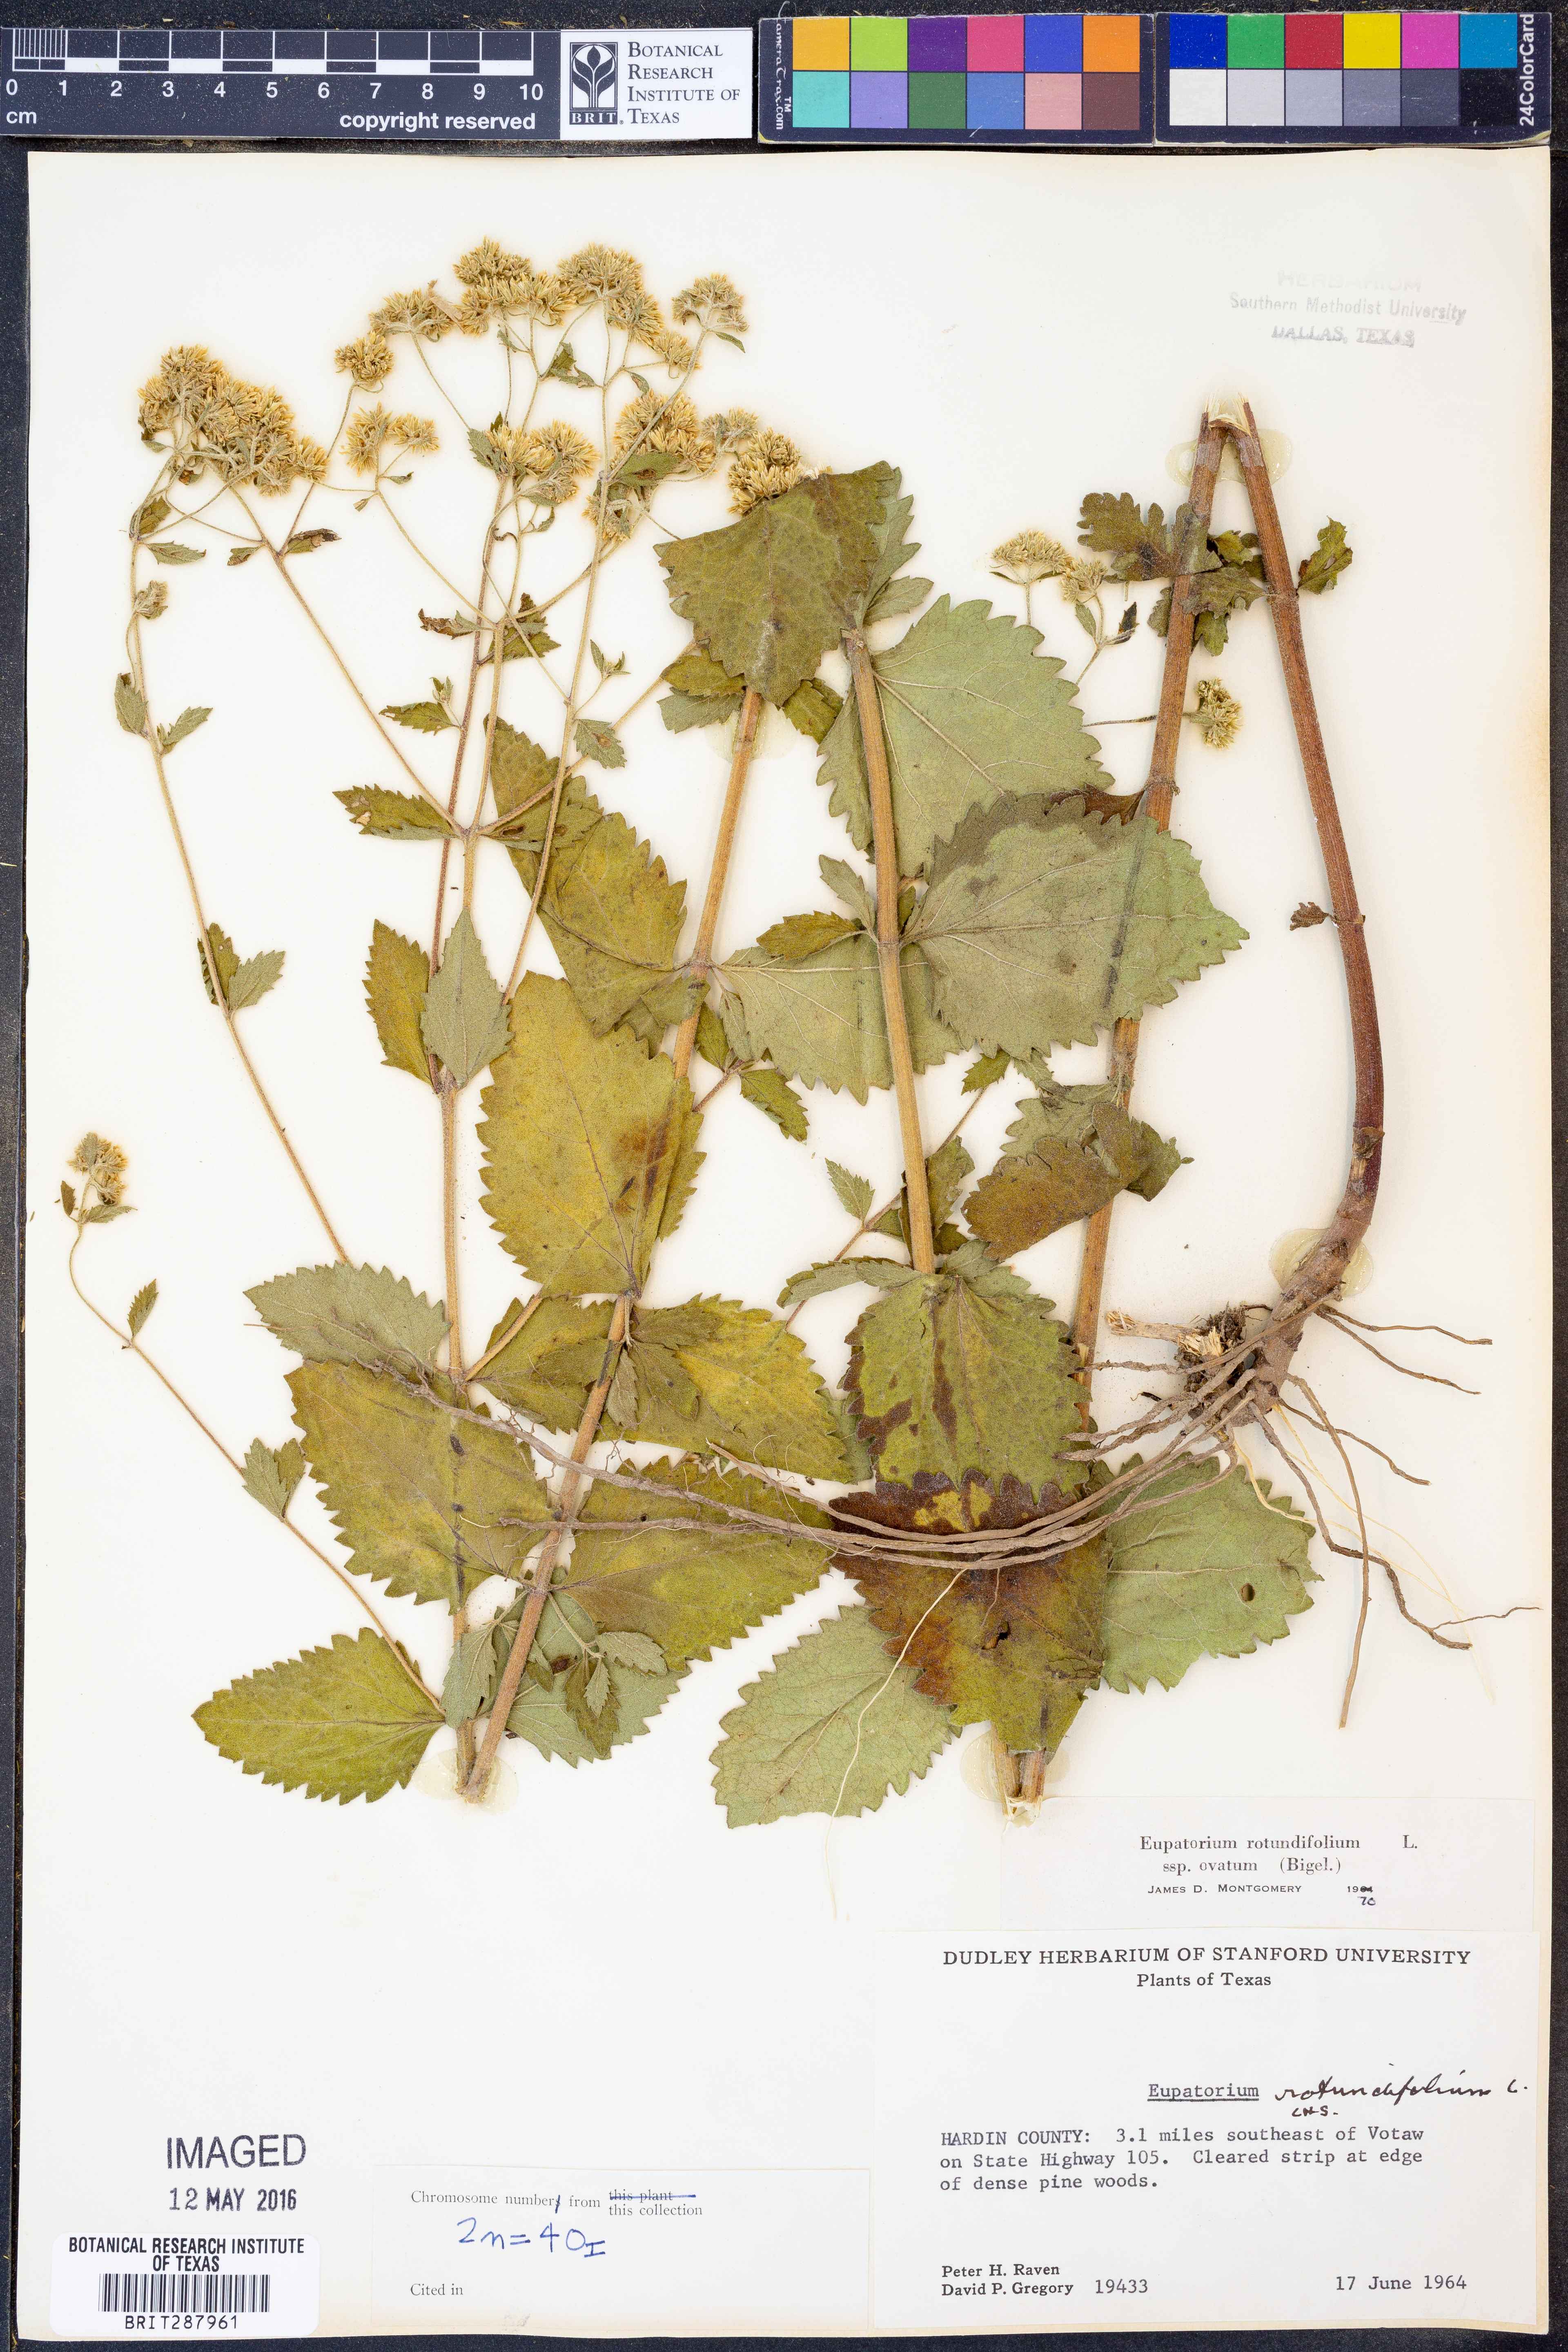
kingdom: Plantae
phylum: Tracheophyta
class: Magnoliopsida
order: Asterales
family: Asteraceae
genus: Eupatorium
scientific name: Eupatorium rotundifolium
